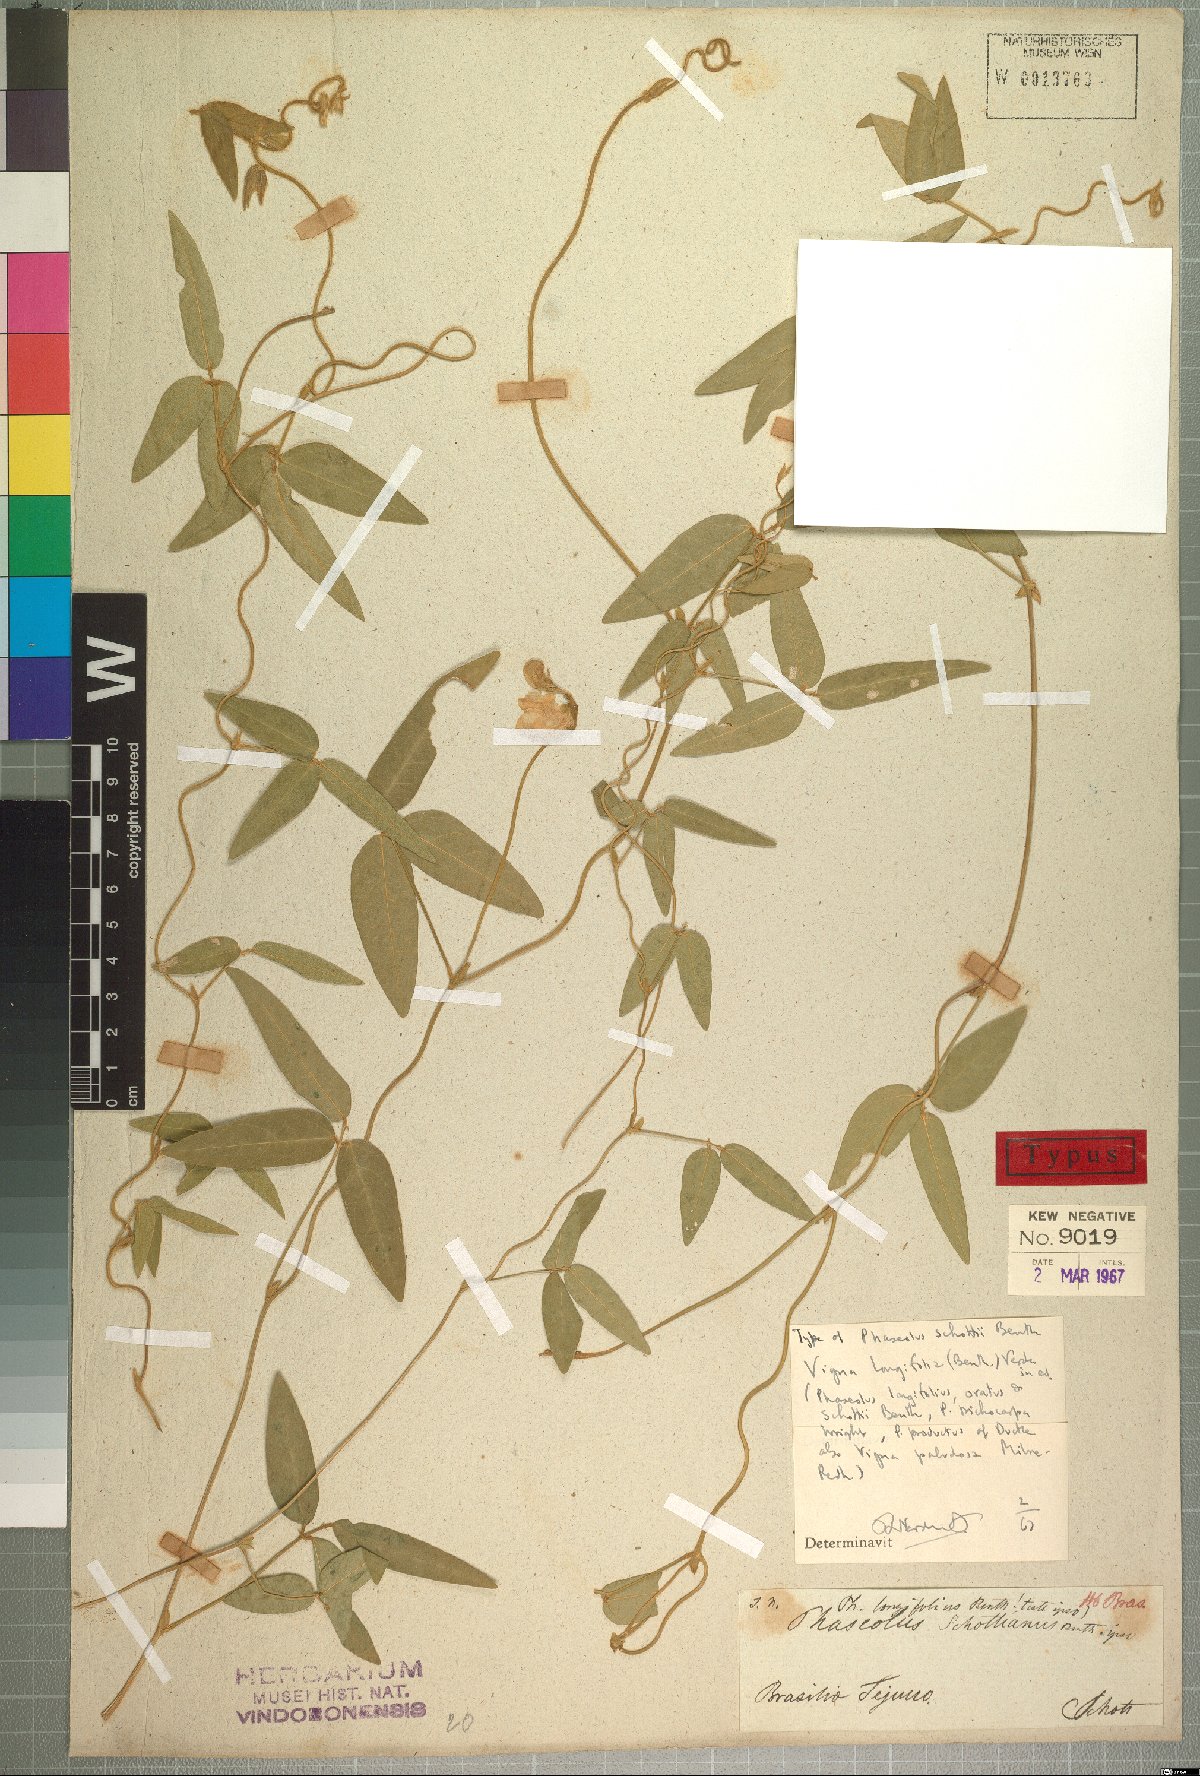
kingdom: Plantae
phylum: Tracheophyta
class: Magnoliopsida
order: Fabales
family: Fabaceae
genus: Vigna
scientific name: Vigna longifolia
